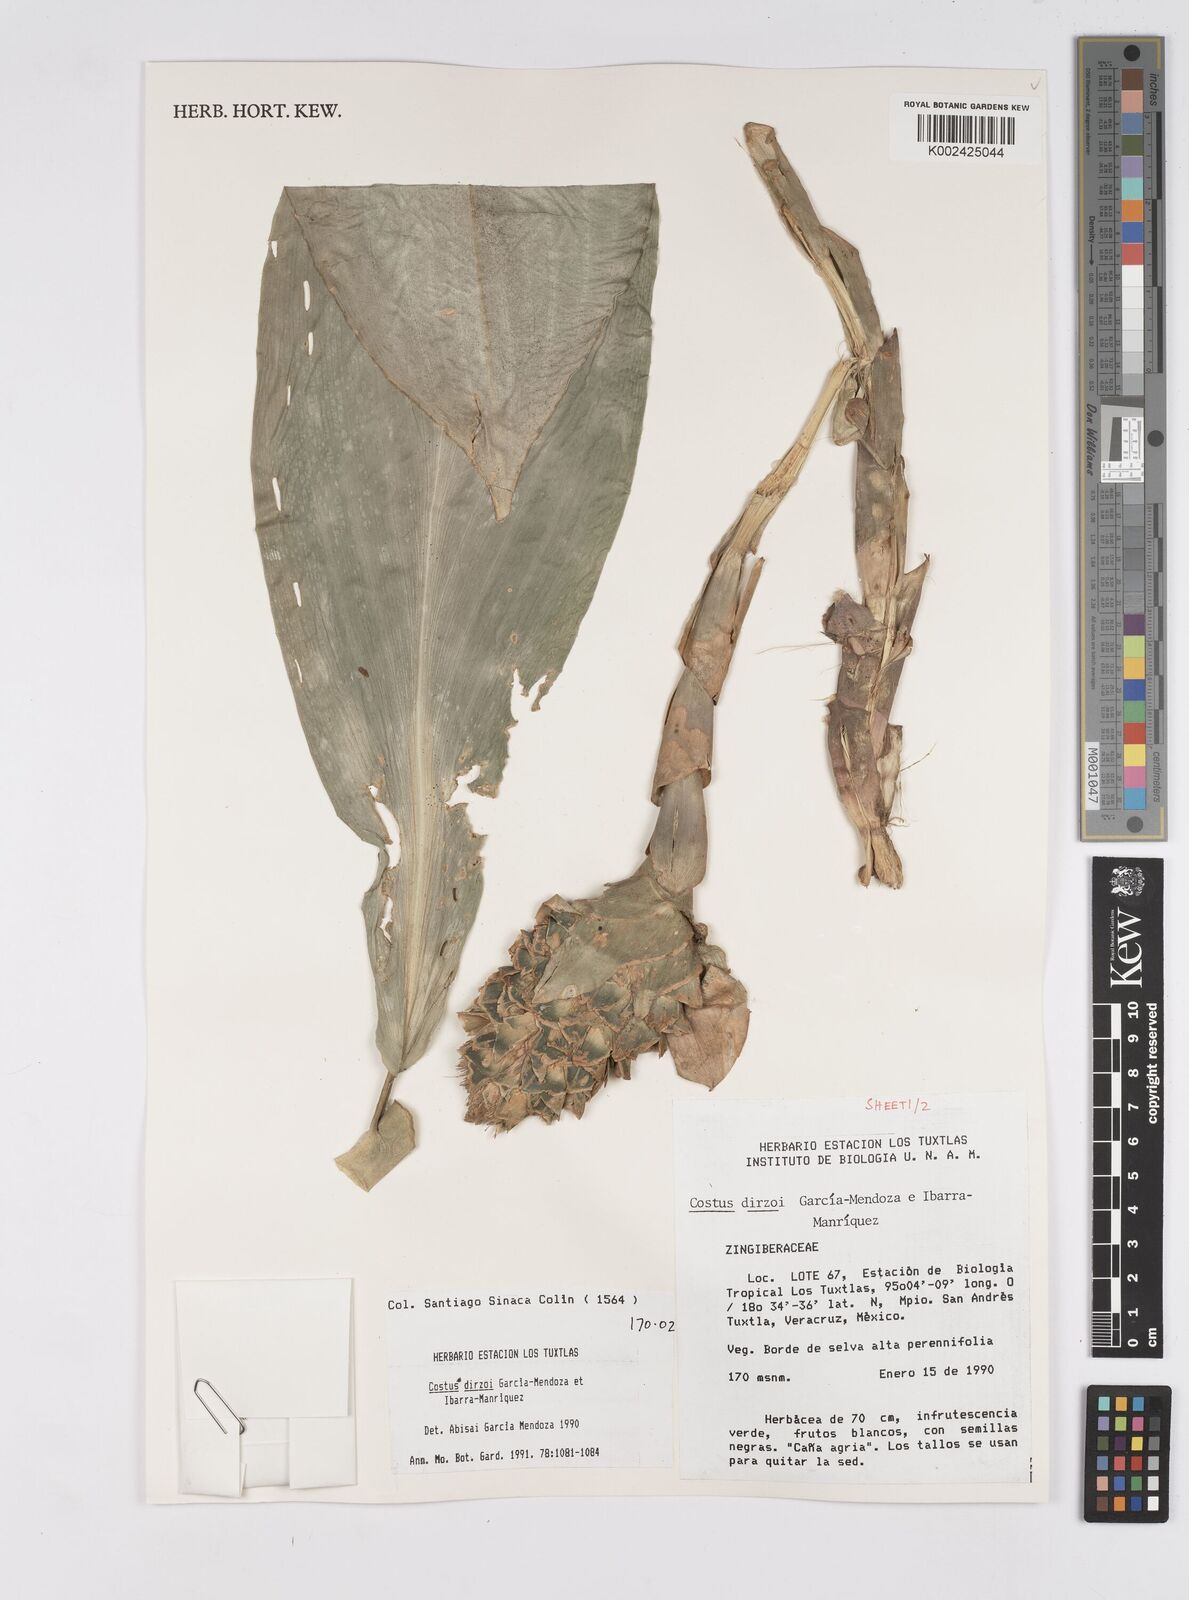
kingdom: Plantae
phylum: Tracheophyta
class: Liliopsida
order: Zingiberales
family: Costaceae
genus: Costus
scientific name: Costus dirzoi
